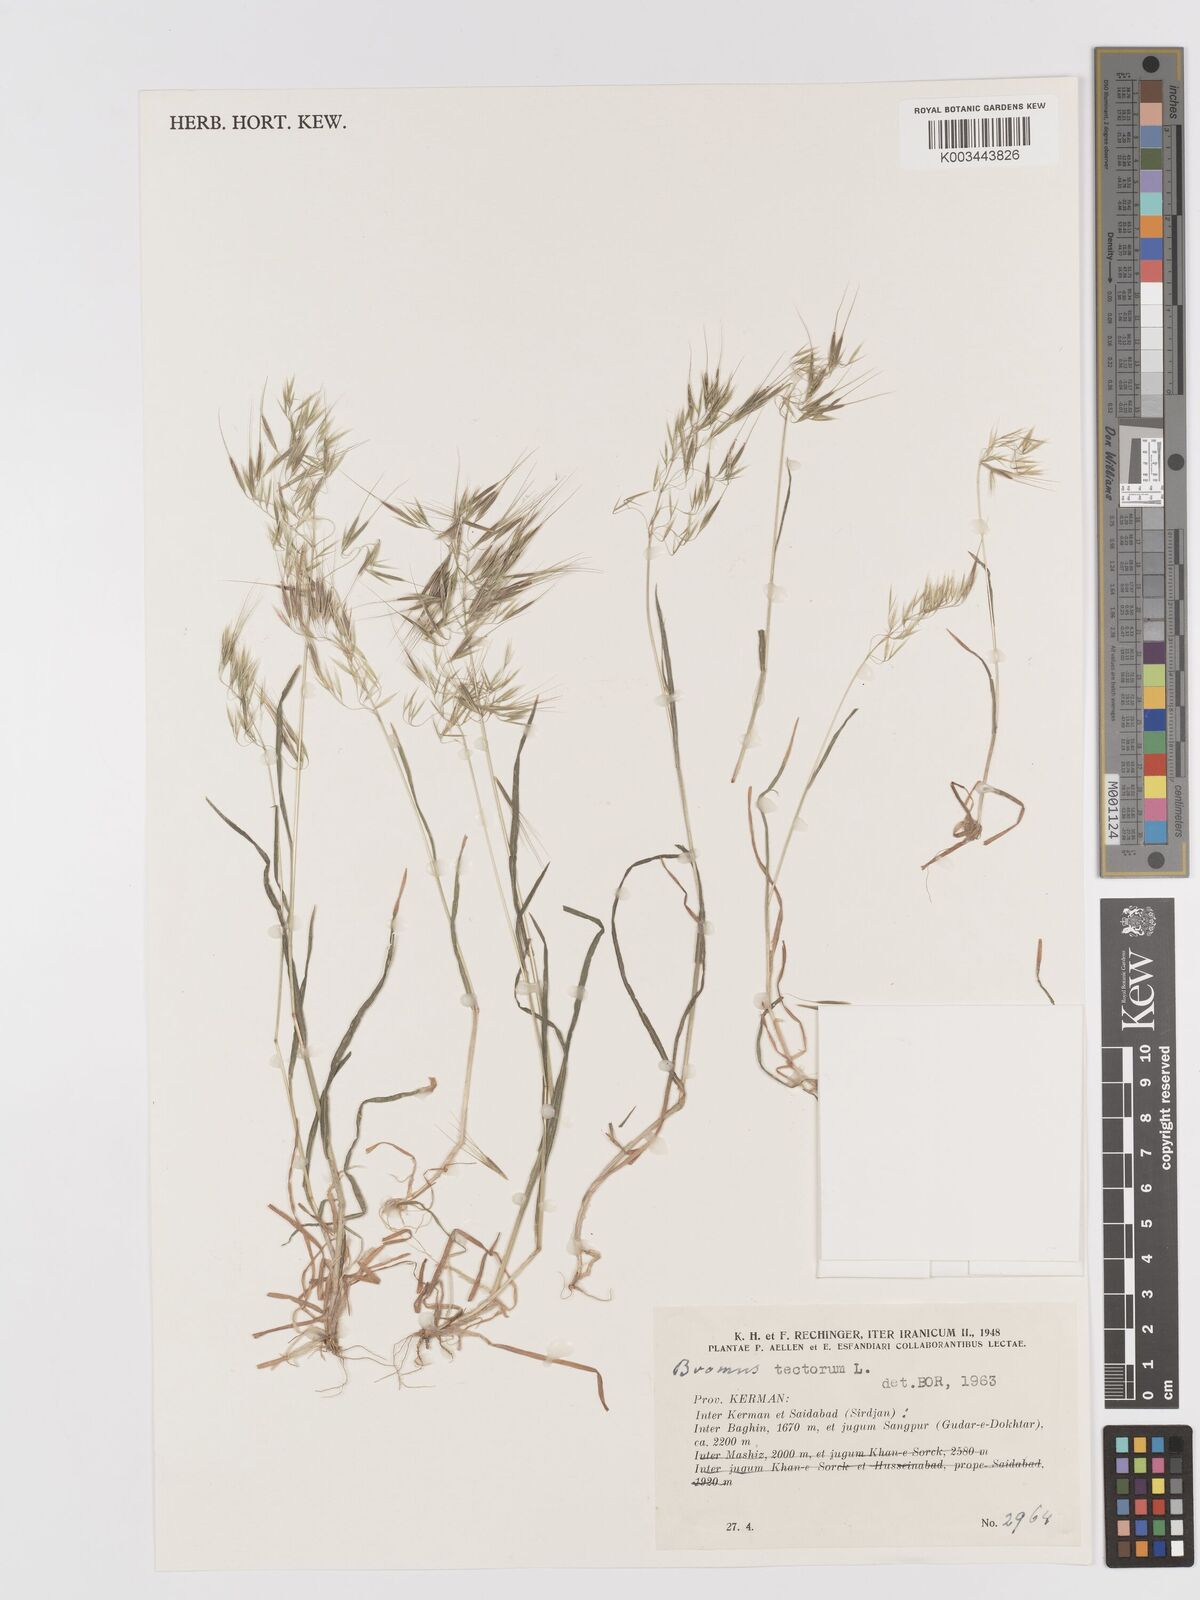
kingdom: Plantae
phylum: Tracheophyta
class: Liliopsida
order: Poales
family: Poaceae
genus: Bromus
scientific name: Bromus tectorum
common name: Cheatgrass
